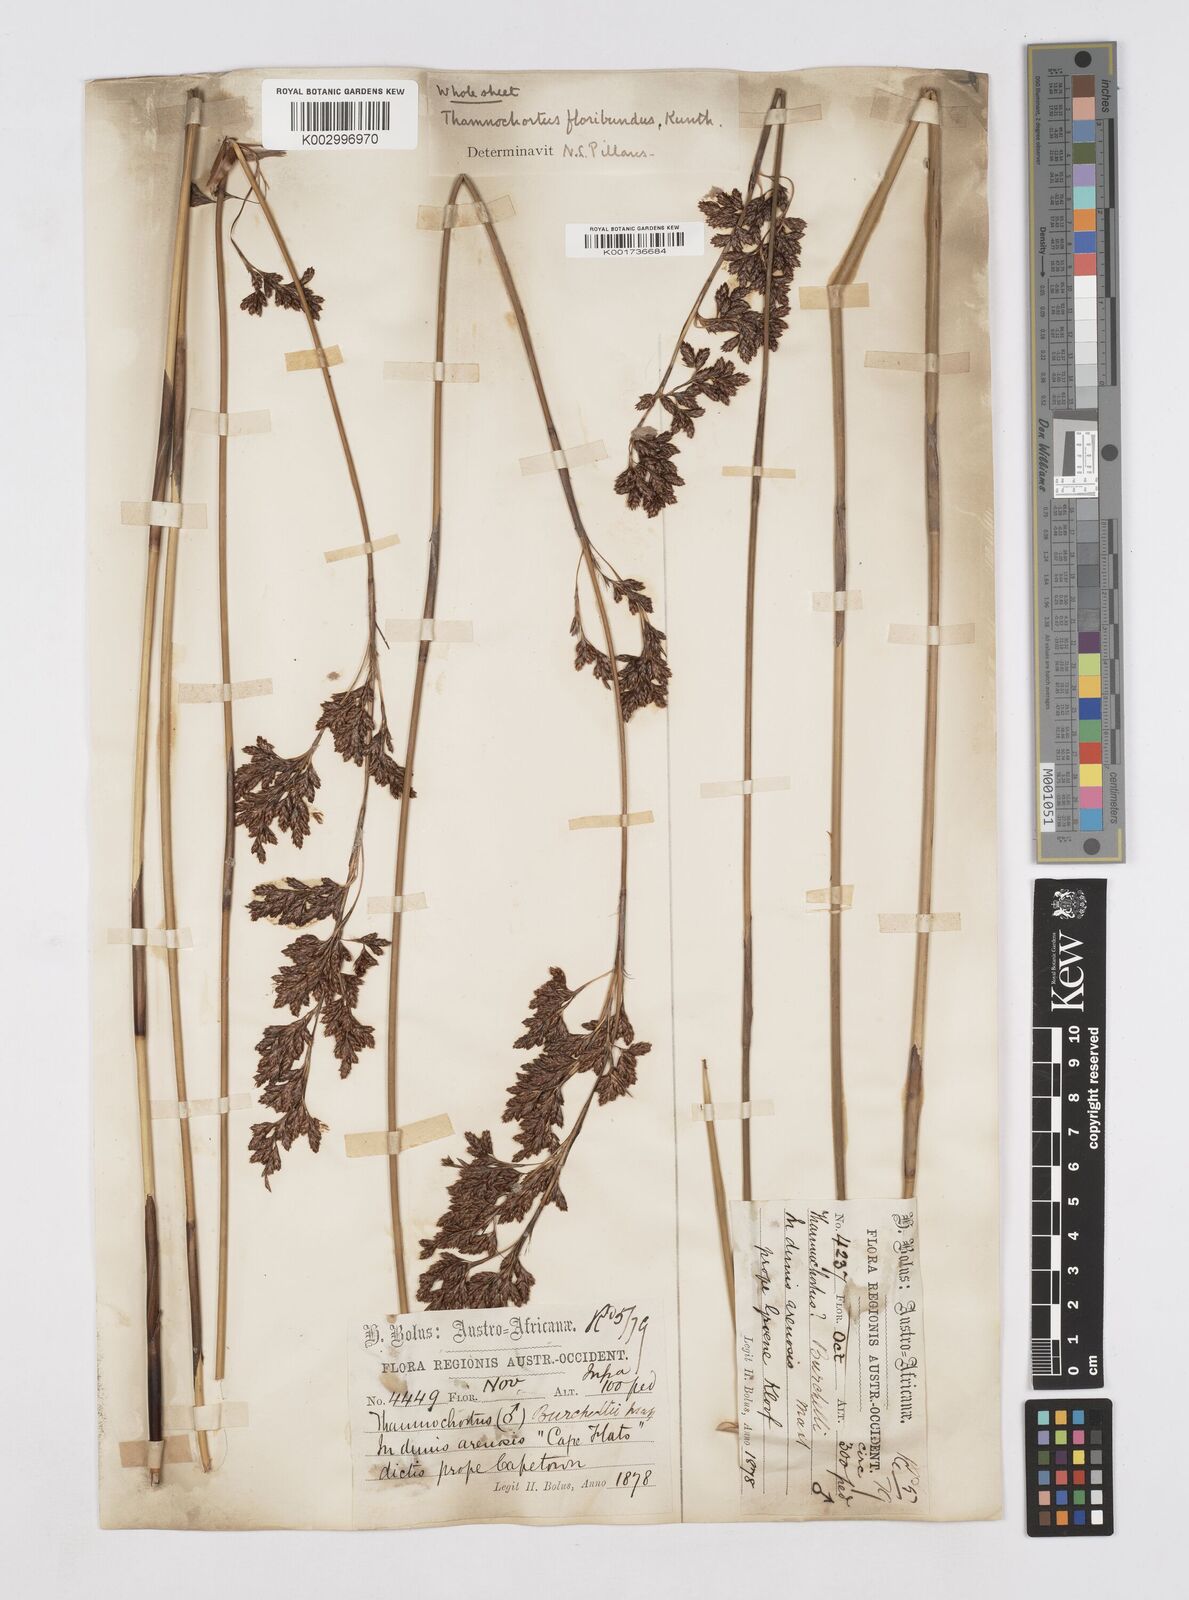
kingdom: Plantae
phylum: Tracheophyta
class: Liliopsida
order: Poales
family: Restionaceae
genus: Thamnochortus
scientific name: Thamnochortus erectus
